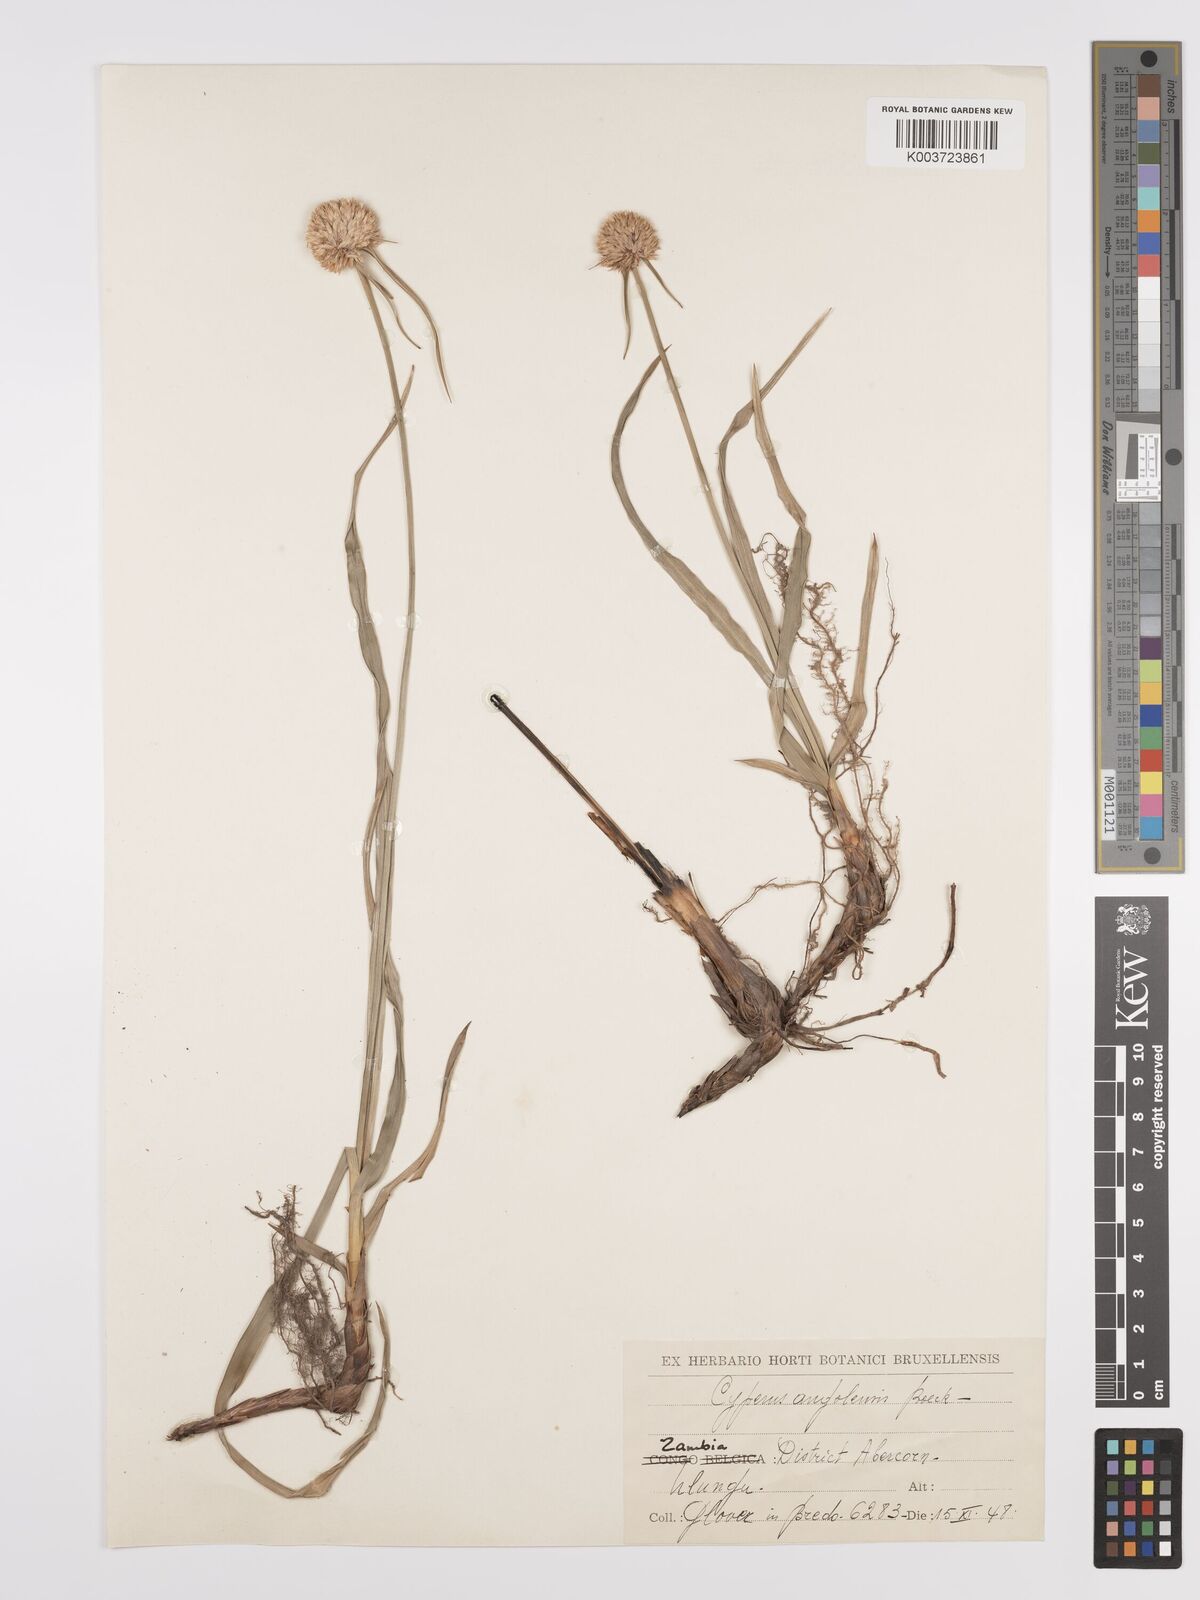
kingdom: Plantae
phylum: Tracheophyta
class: Liliopsida
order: Poales
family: Cyperaceae
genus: Cyperus
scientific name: Cyperus angolensis
